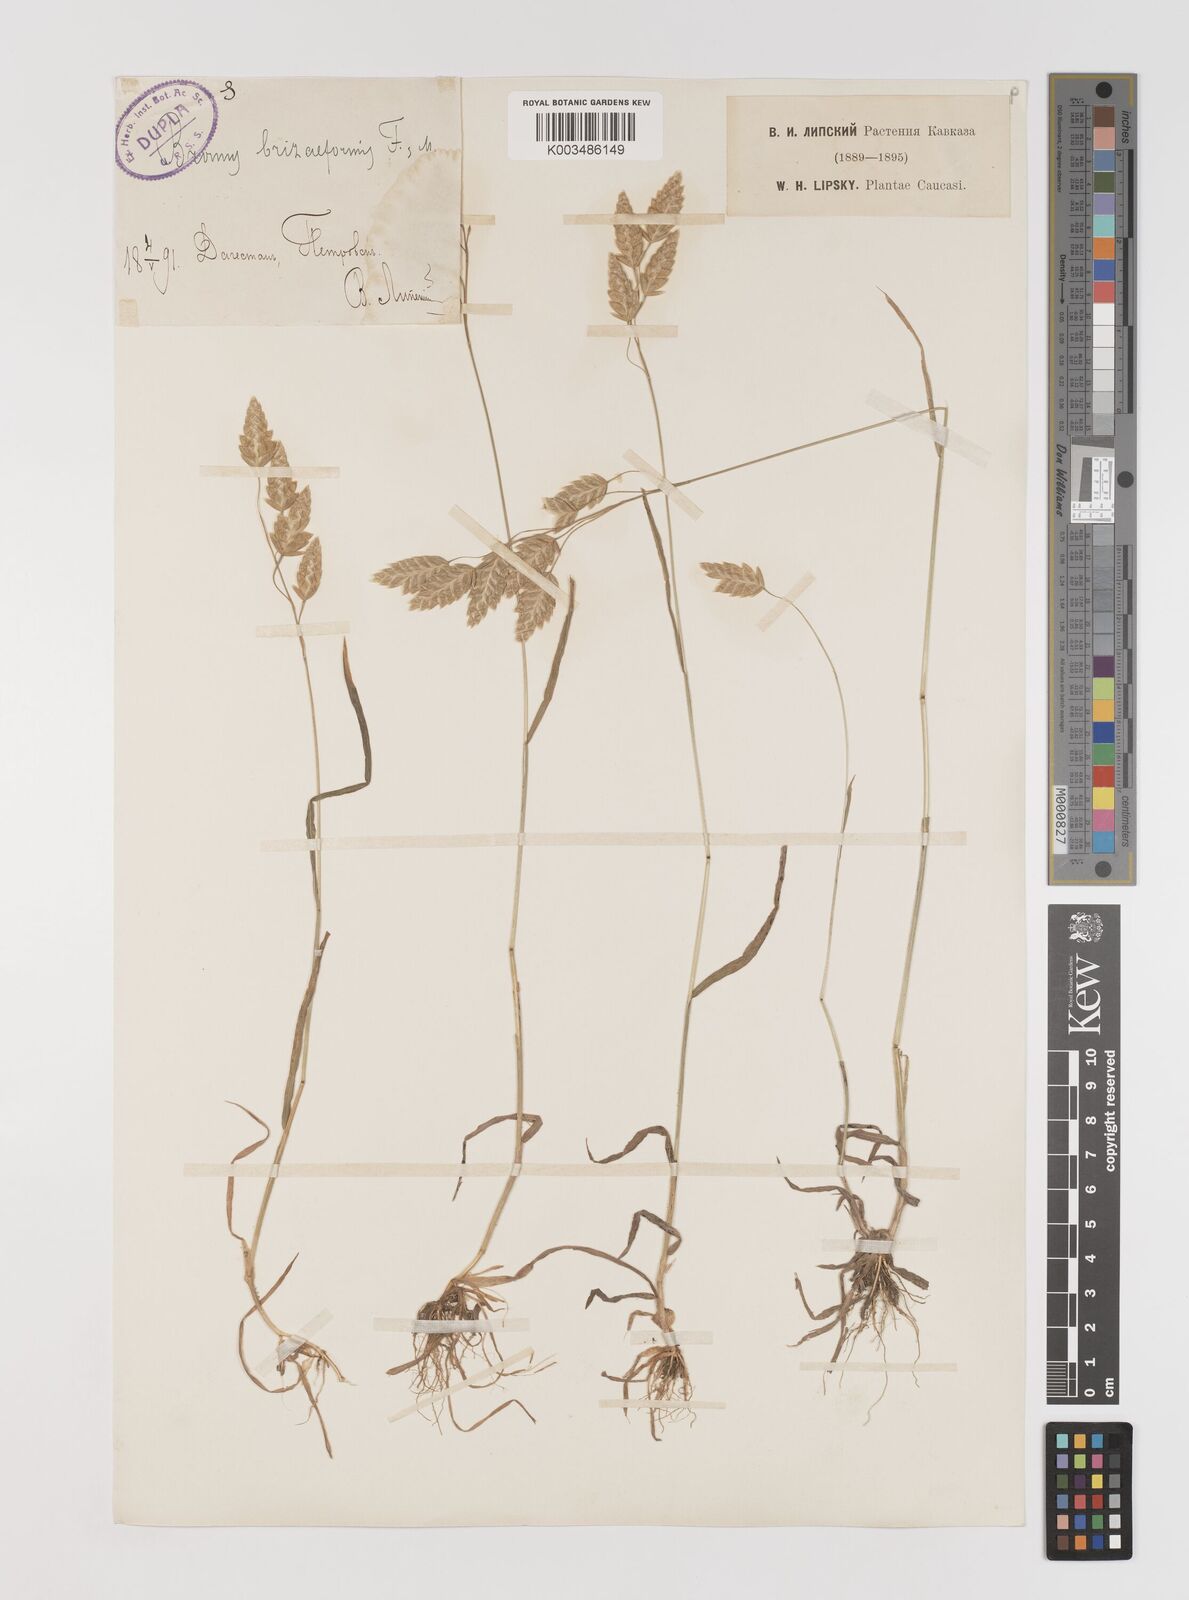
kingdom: Plantae
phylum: Tracheophyta
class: Liliopsida
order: Poales
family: Poaceae
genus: Bromus
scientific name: Bromus briziformis
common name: Rattlesnake brome
